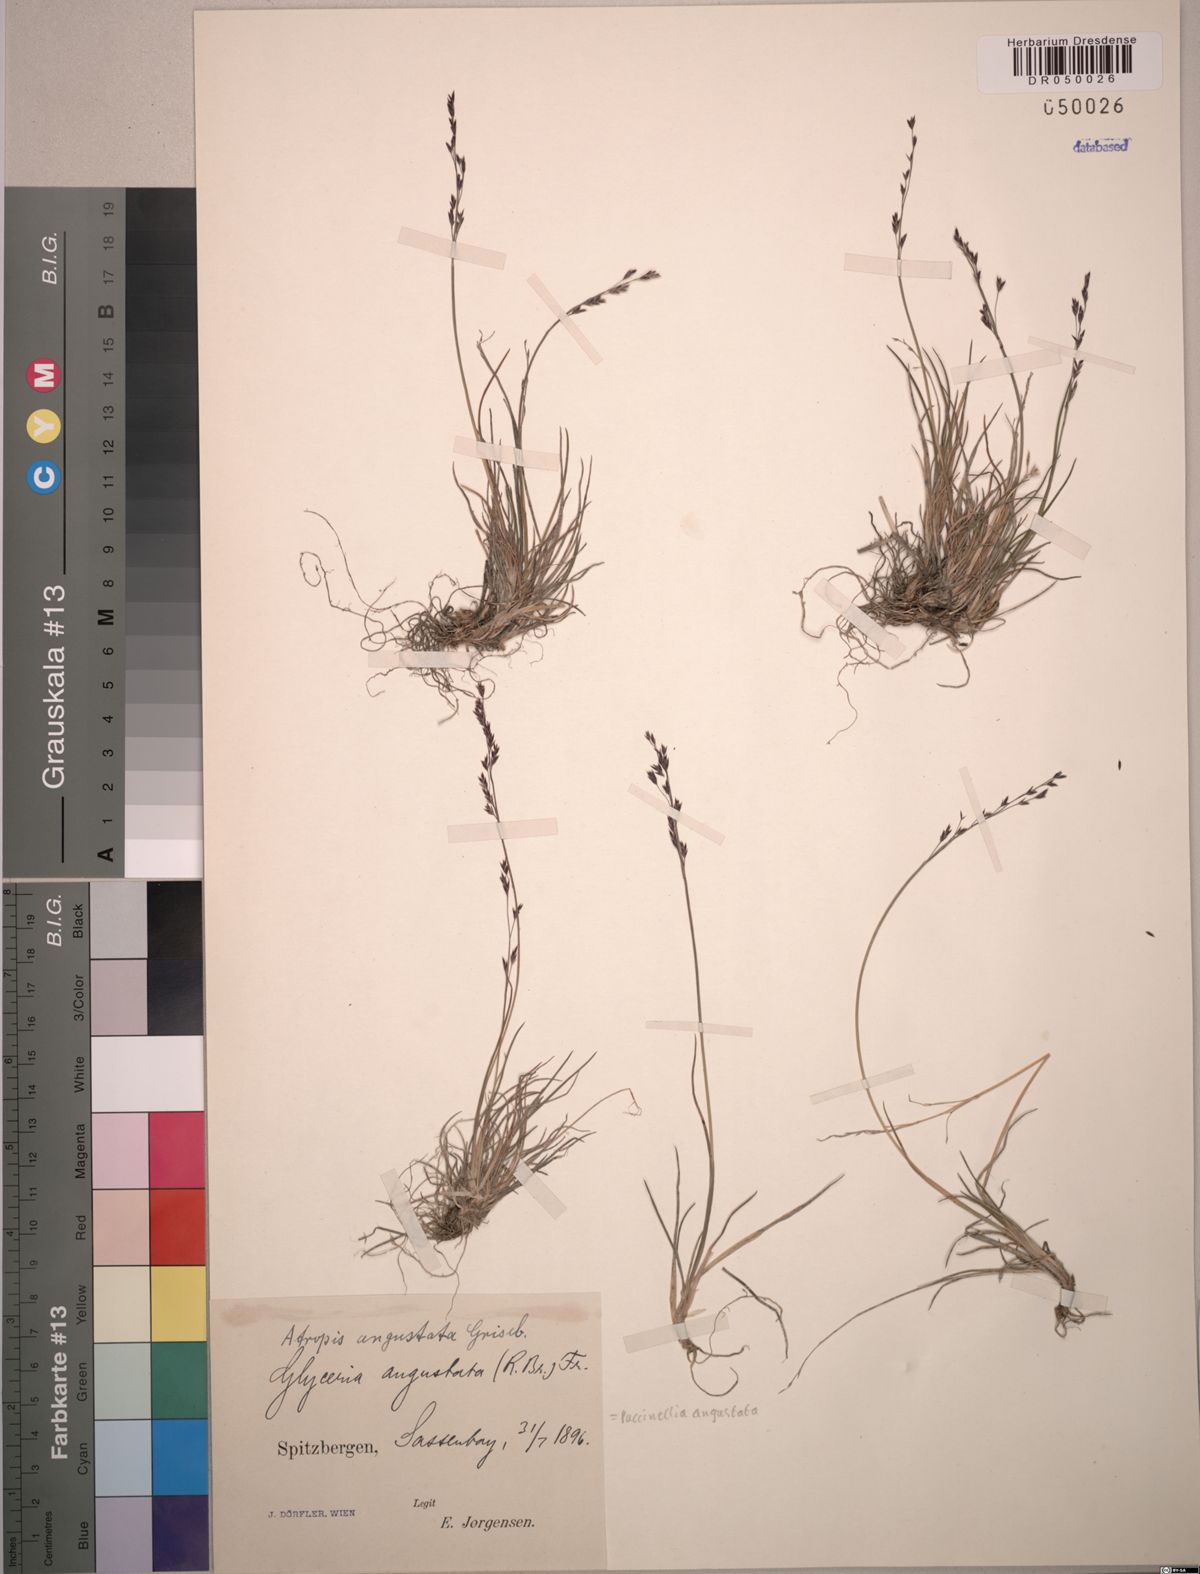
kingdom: Plantae
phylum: Tracheophyta
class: Liliopsida
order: Poales
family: Poaceae
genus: Puccinellia
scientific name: Puccinellia angustata
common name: Narrow alkaligrass
